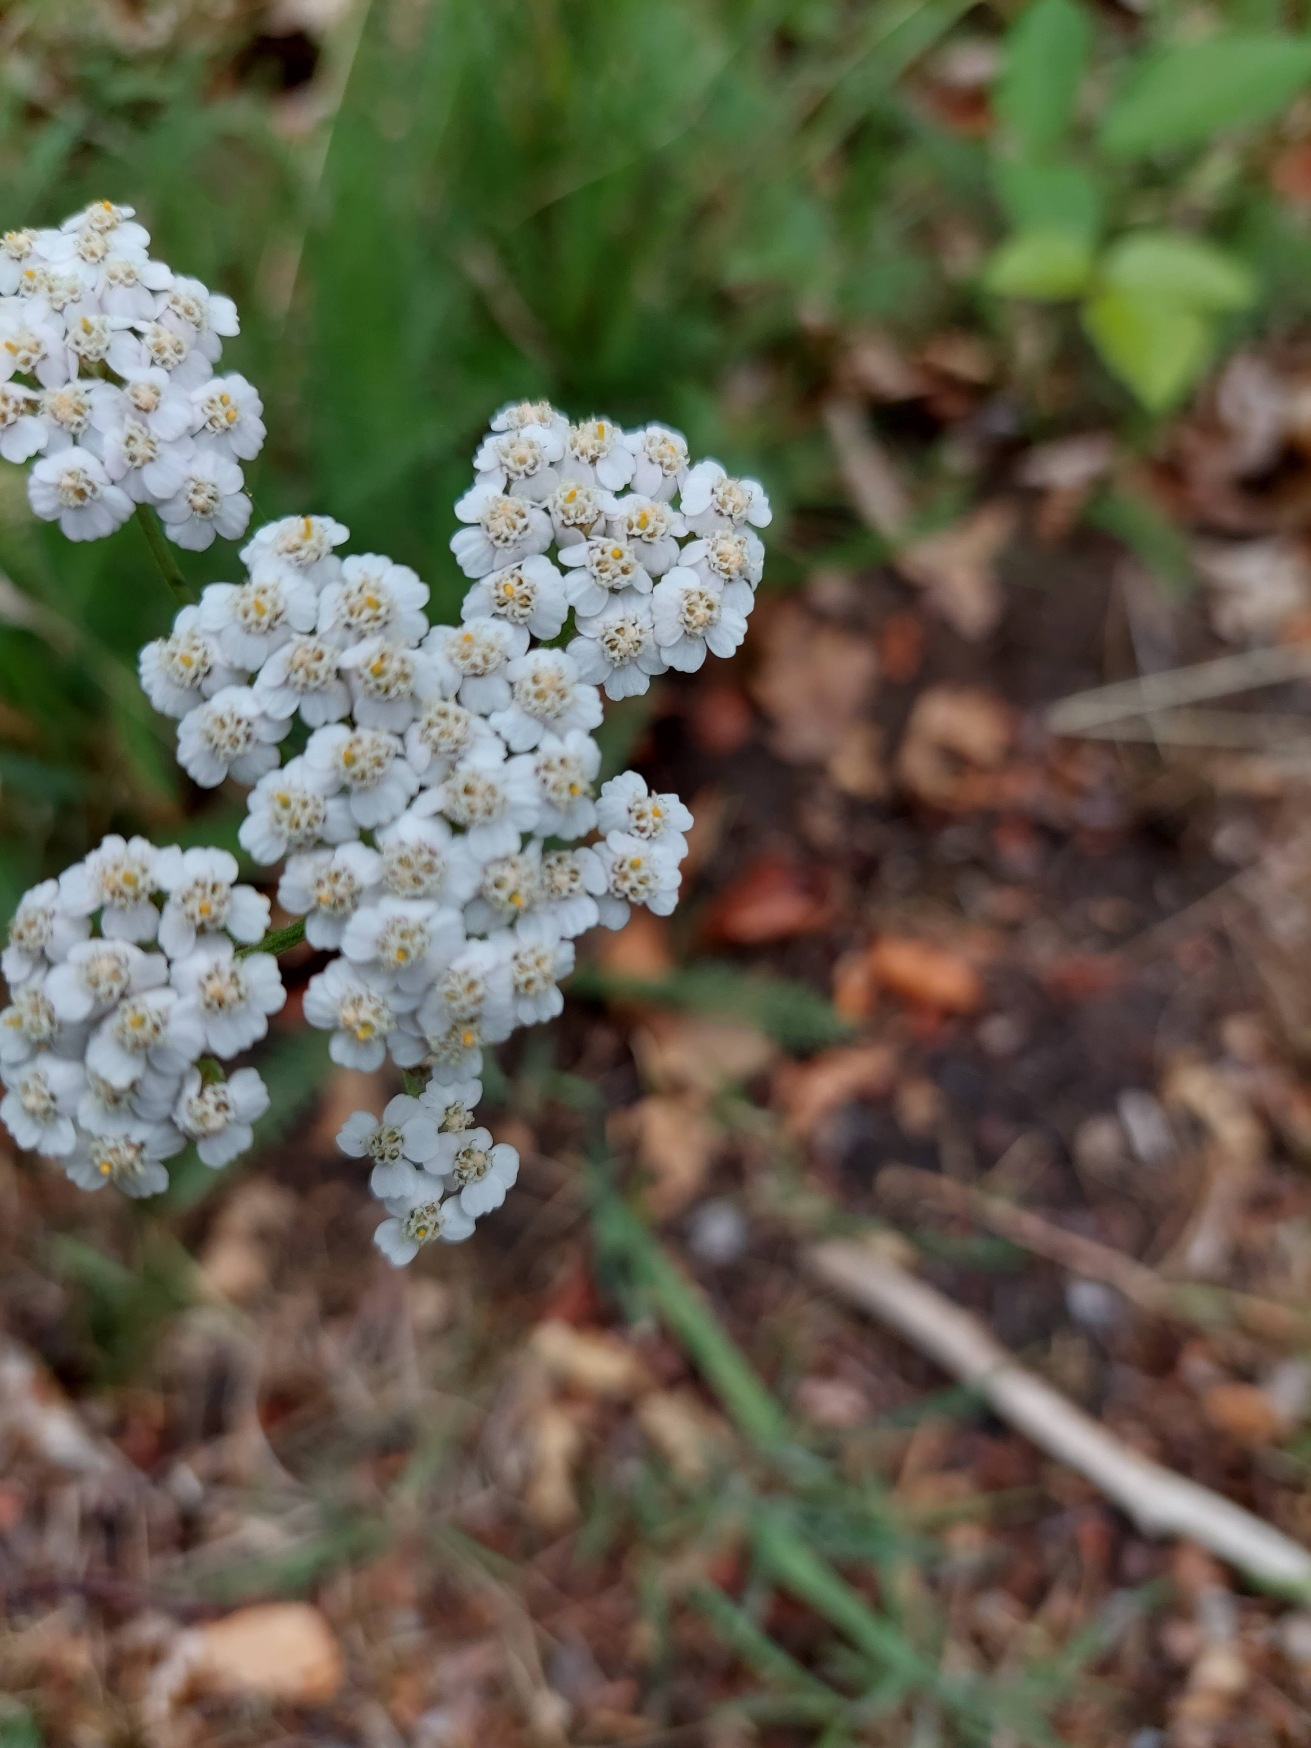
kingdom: Plantae
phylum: Tracheophyta
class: Magnoliopsida
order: Asterales
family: Asteraceae
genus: Achillea
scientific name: Achillea millefolium
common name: Almindelig røllike
